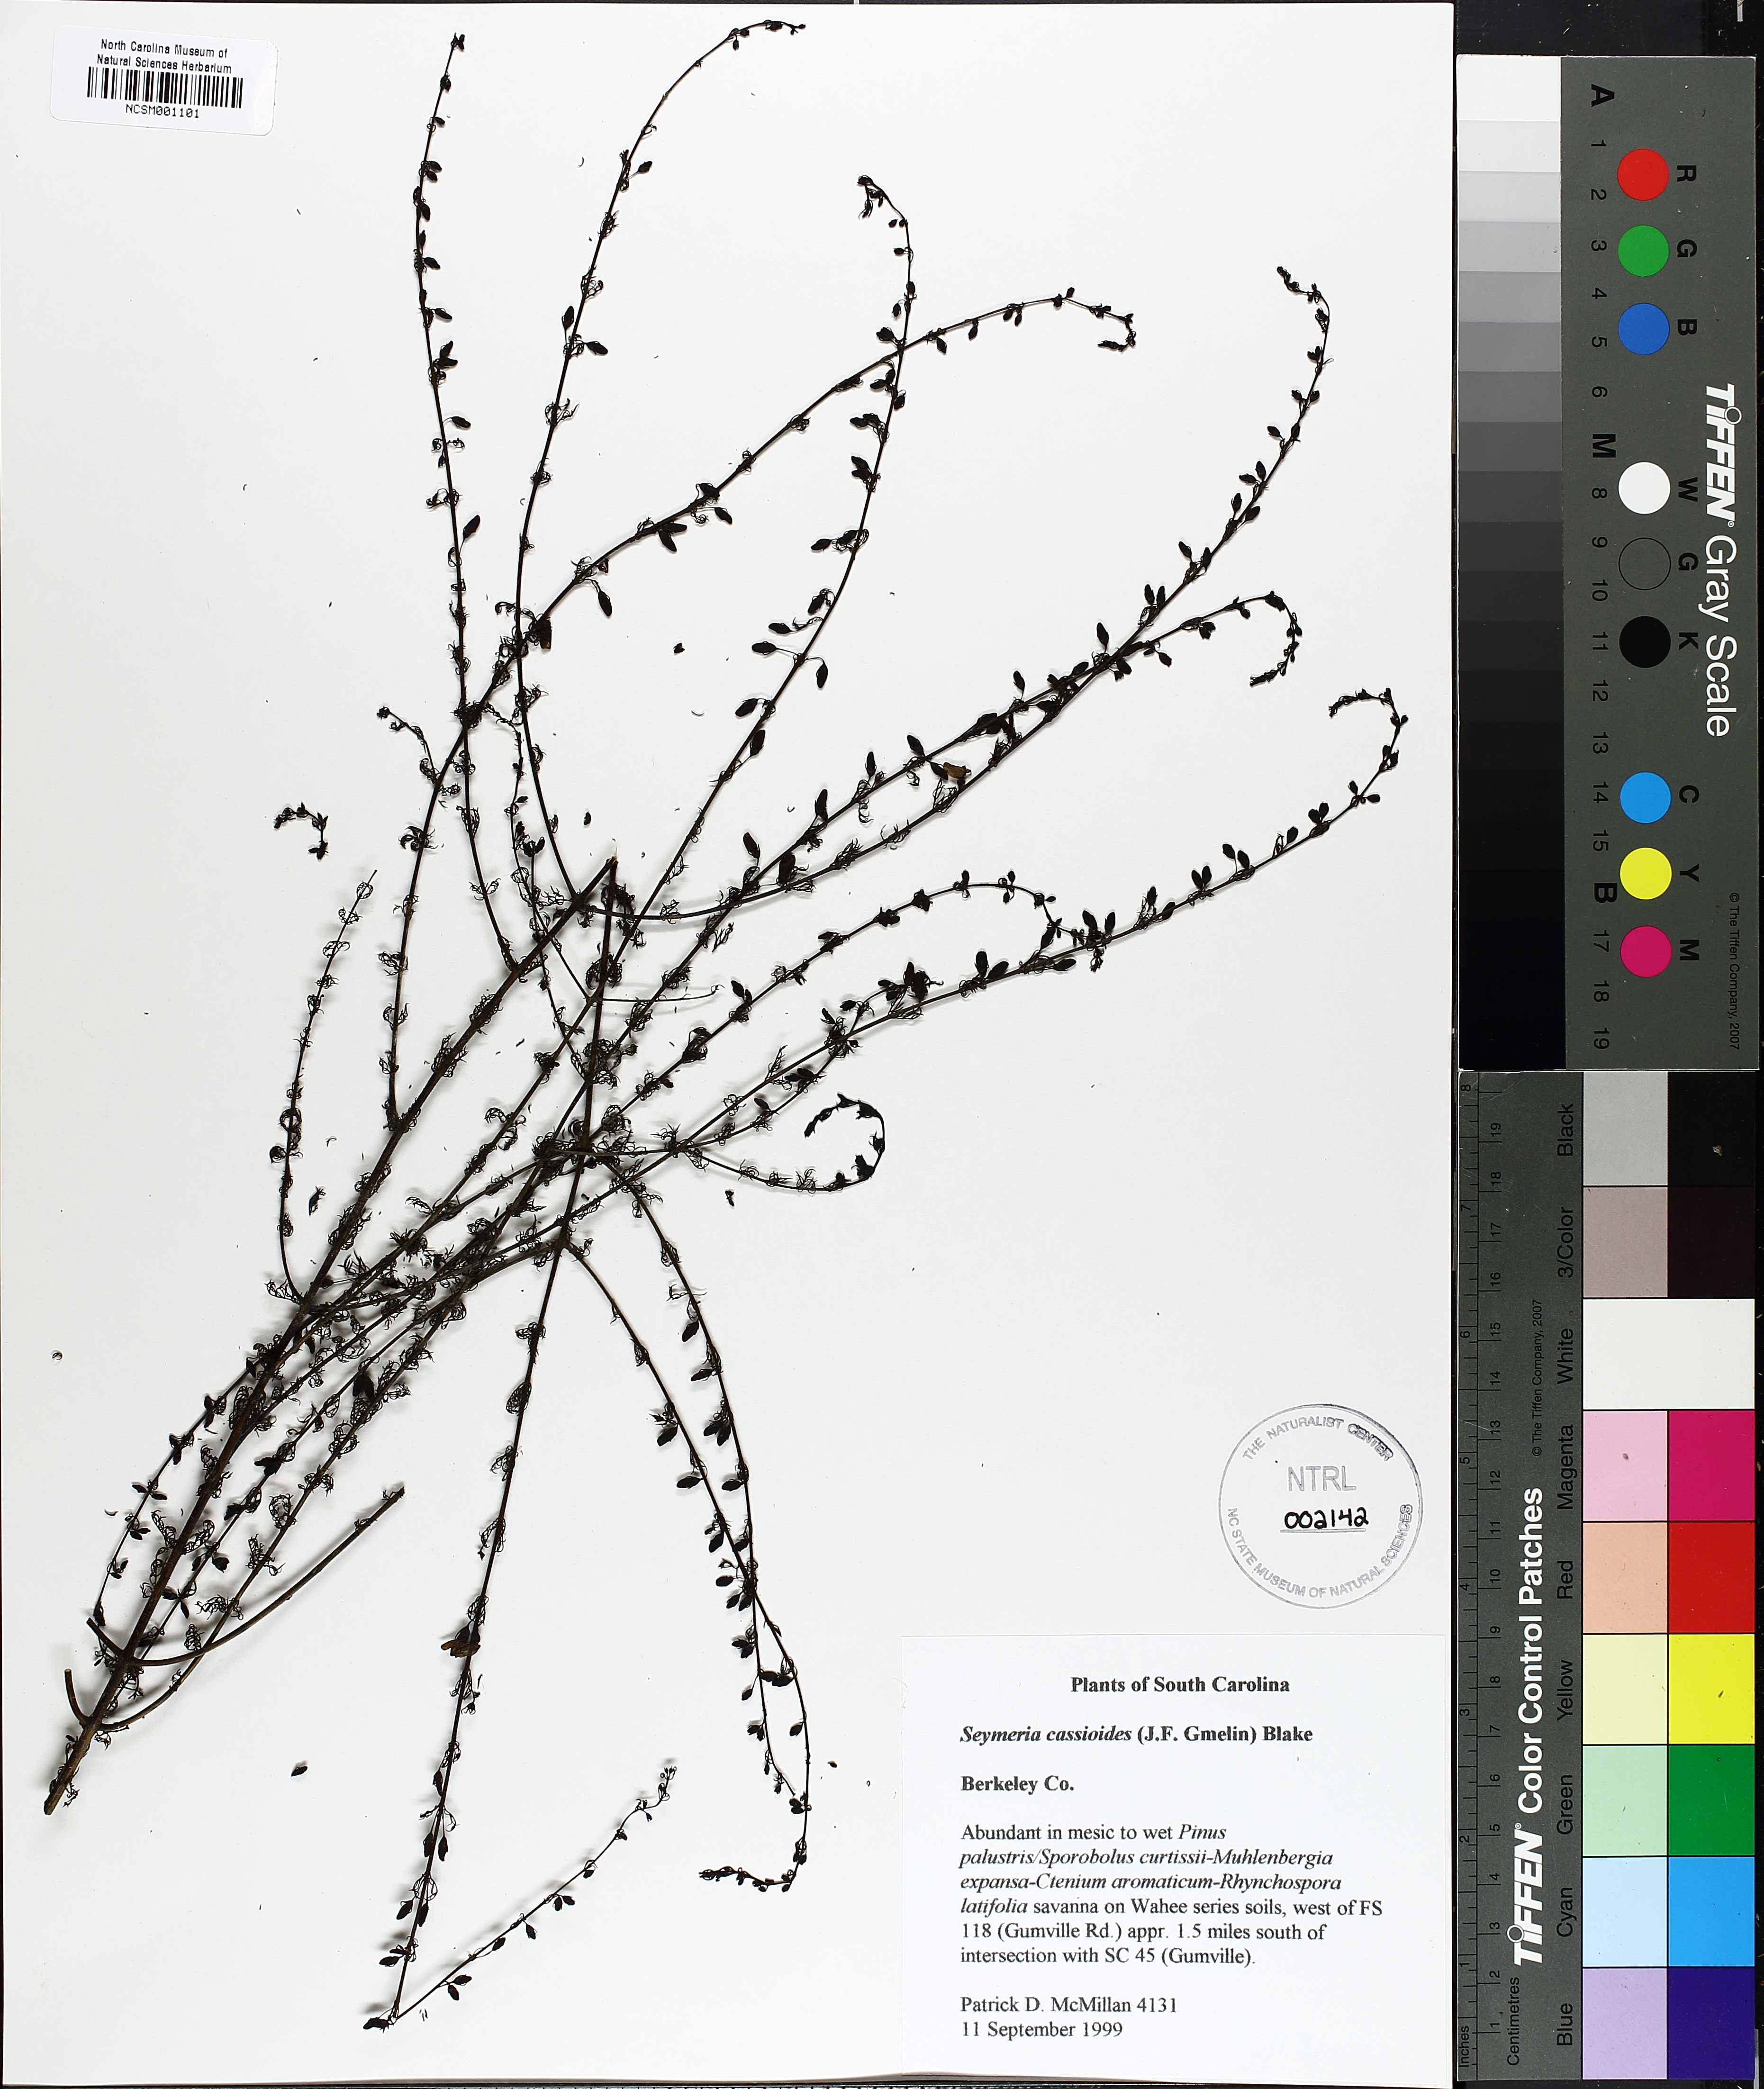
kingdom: Plantae
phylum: Tracheophyta
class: Magnoliopsida
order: Lamiales
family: Orobanchaceae
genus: Seymeria
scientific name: Seymeria cassioides
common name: Yaupon black-senna
